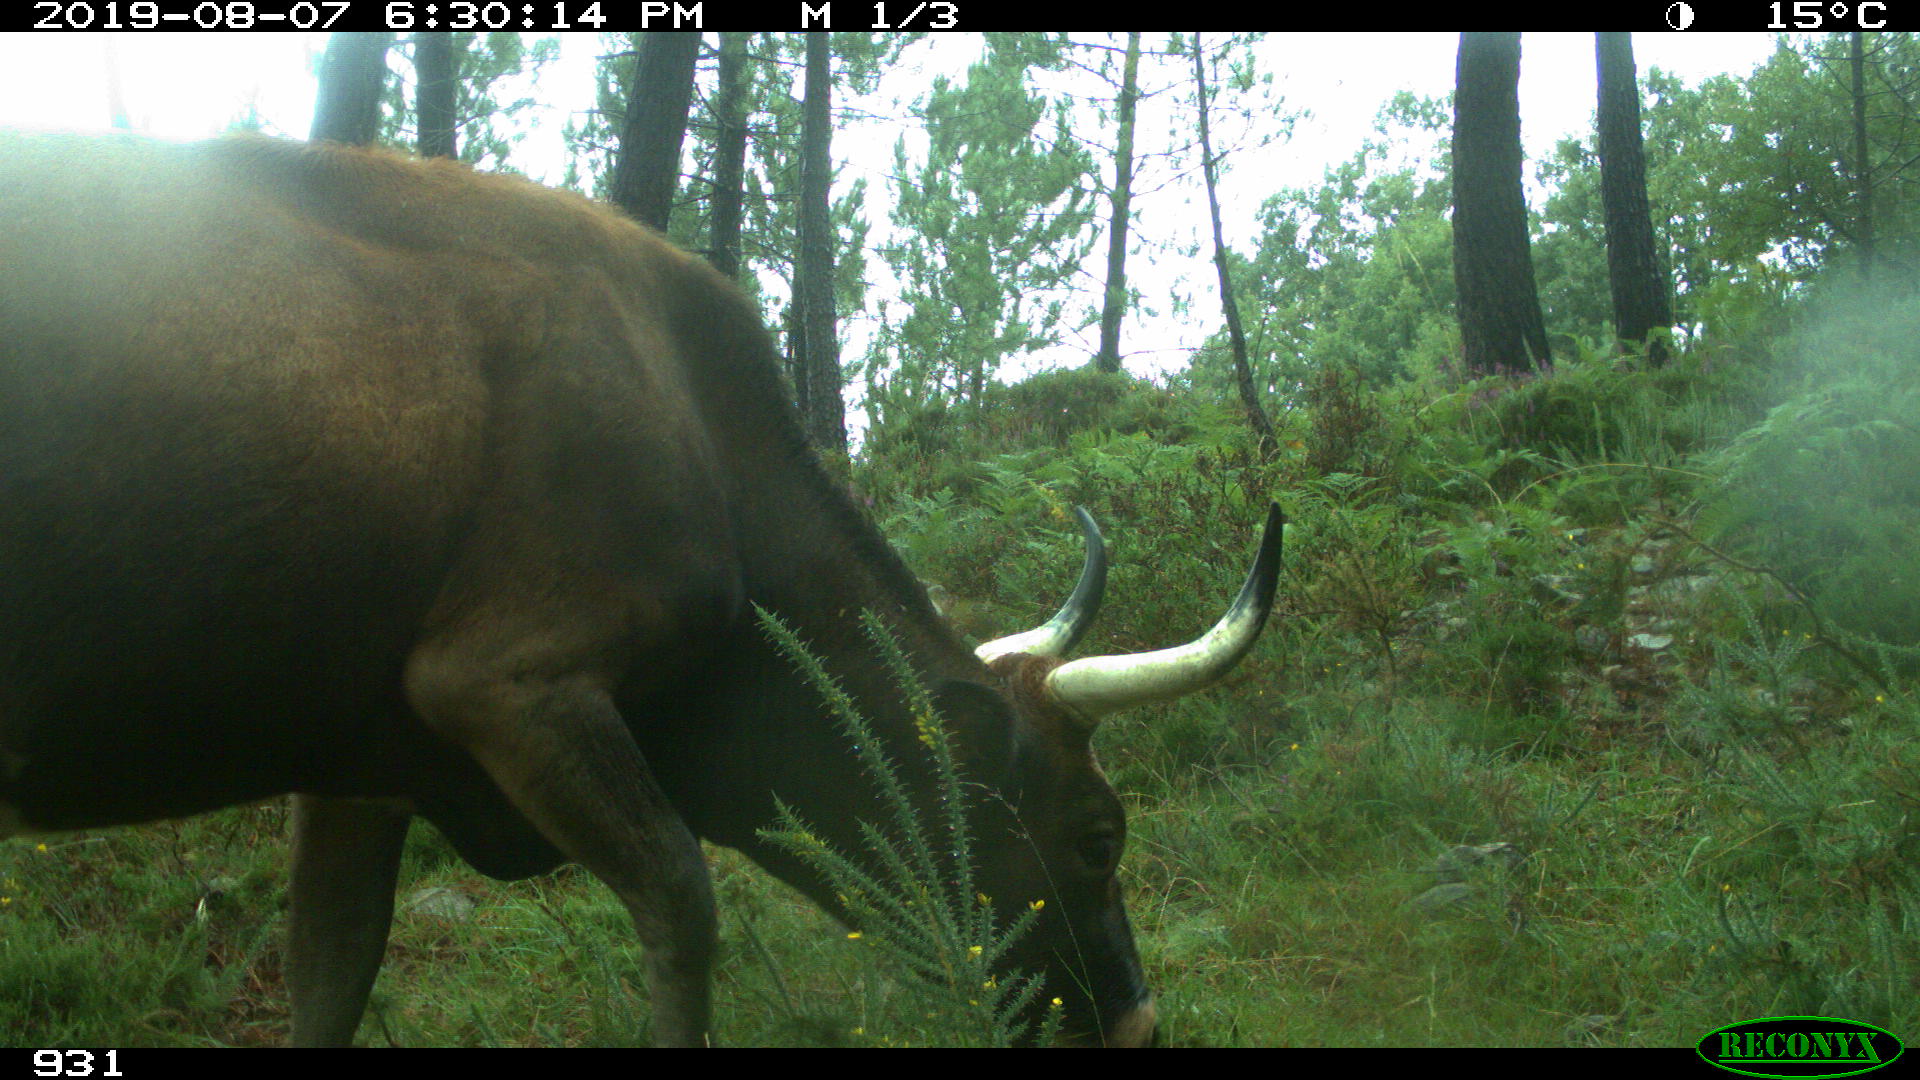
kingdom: Animalia
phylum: Chordata
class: Mammalia
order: Artiodactyla
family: Bovidae
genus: Bos
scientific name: Bos taurus
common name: Domesticated cattle
